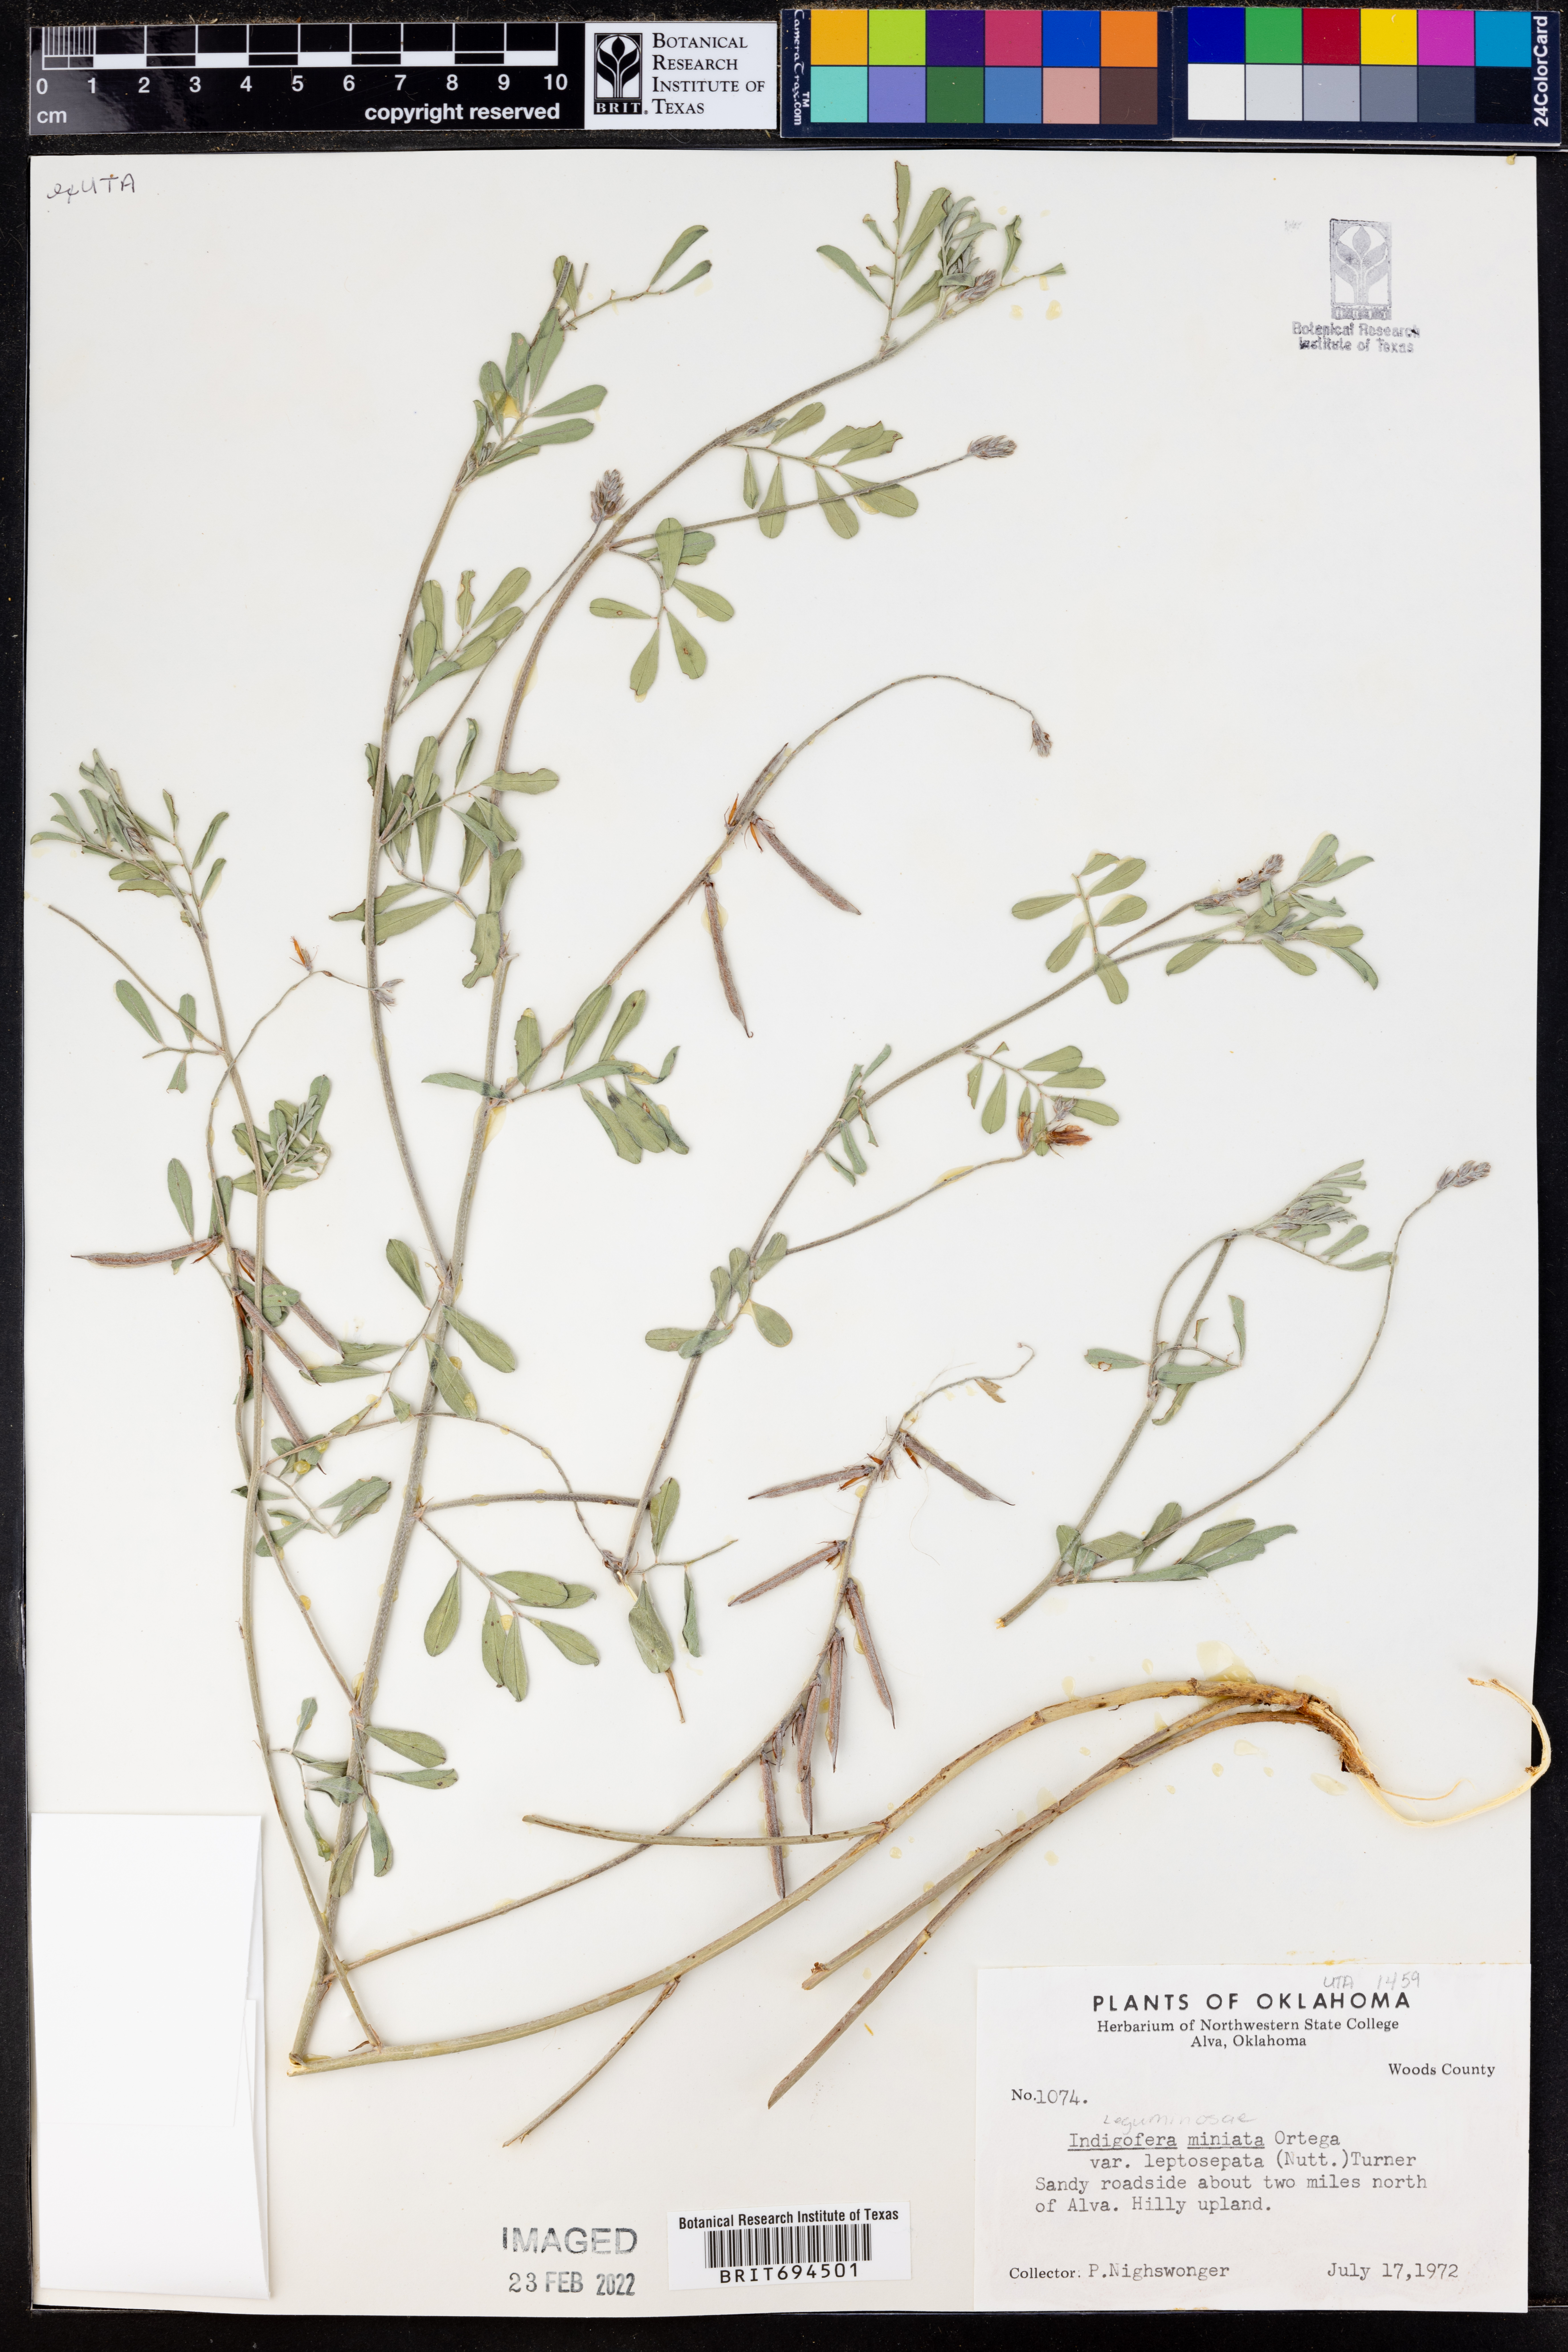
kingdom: Plantae
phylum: Tracheophyta
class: Magnoliopsida
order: Fabales
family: Fabaceae
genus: Indigofera
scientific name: Indigofera miniata
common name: Coast indigo
